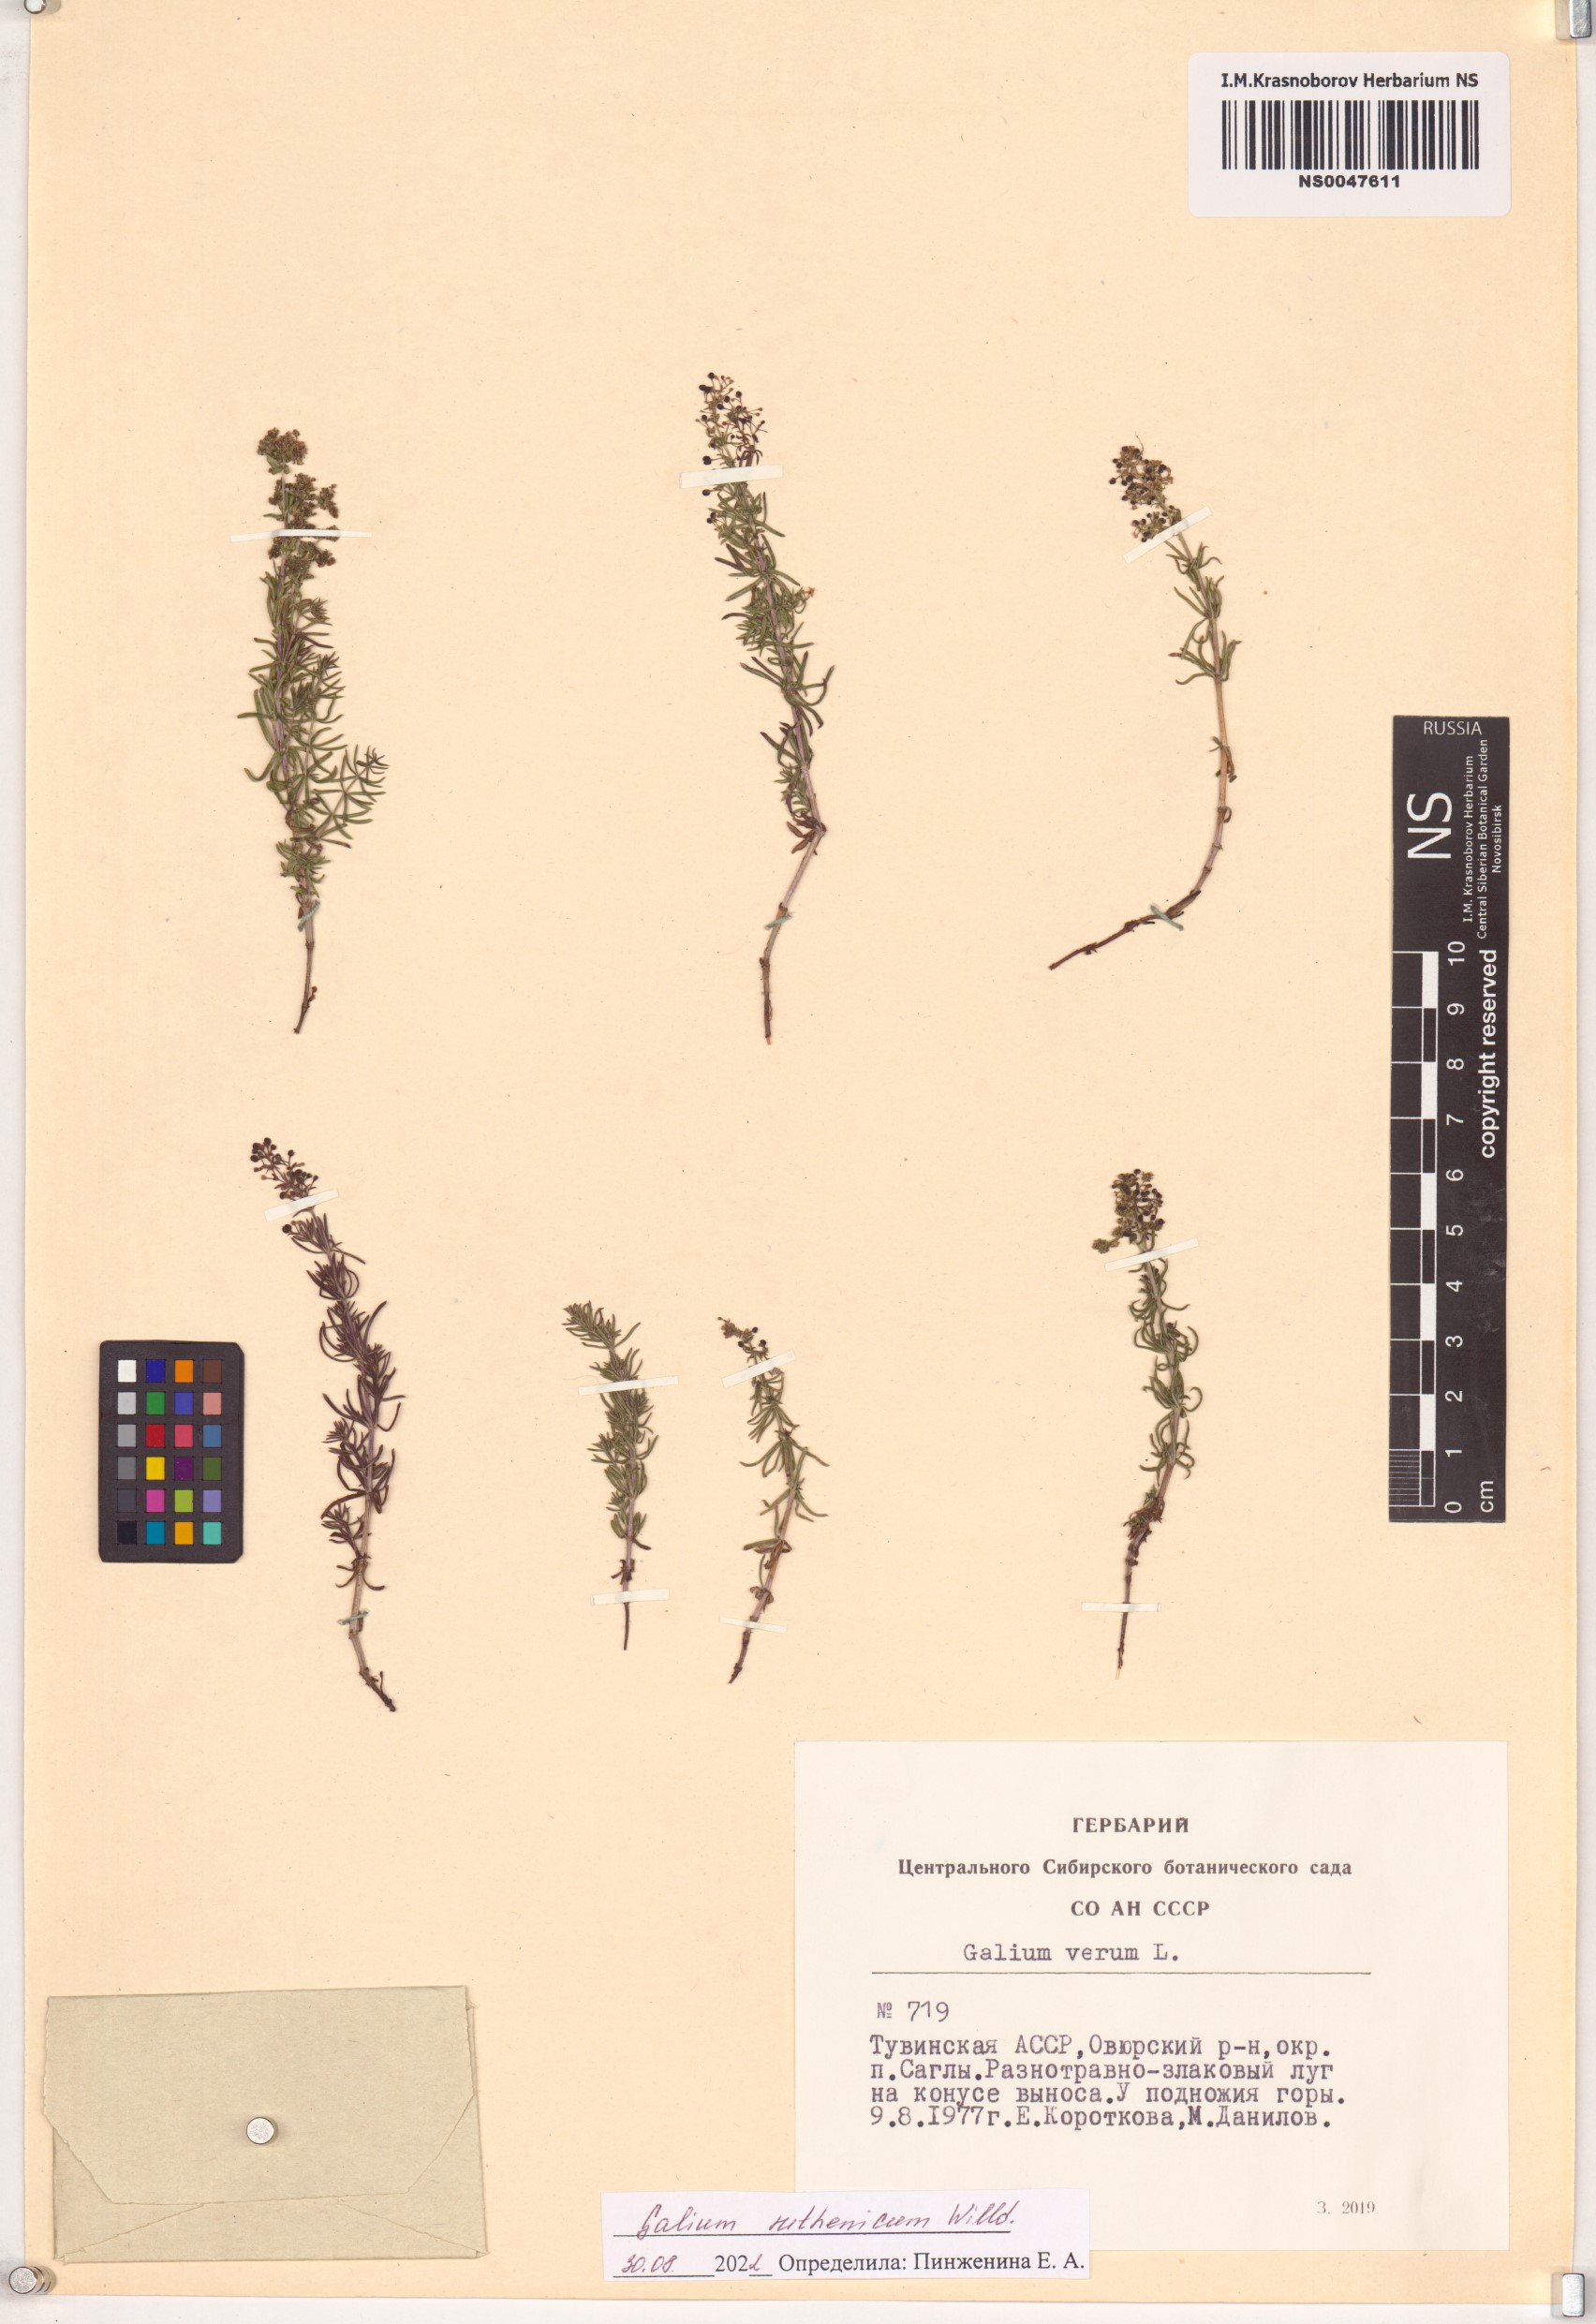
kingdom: Plantae
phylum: Tracheophyta
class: Magnoliopsida
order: Gentianales
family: Rubiaceae
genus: Galium
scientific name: Galium verum
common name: Lady's bedstraw
